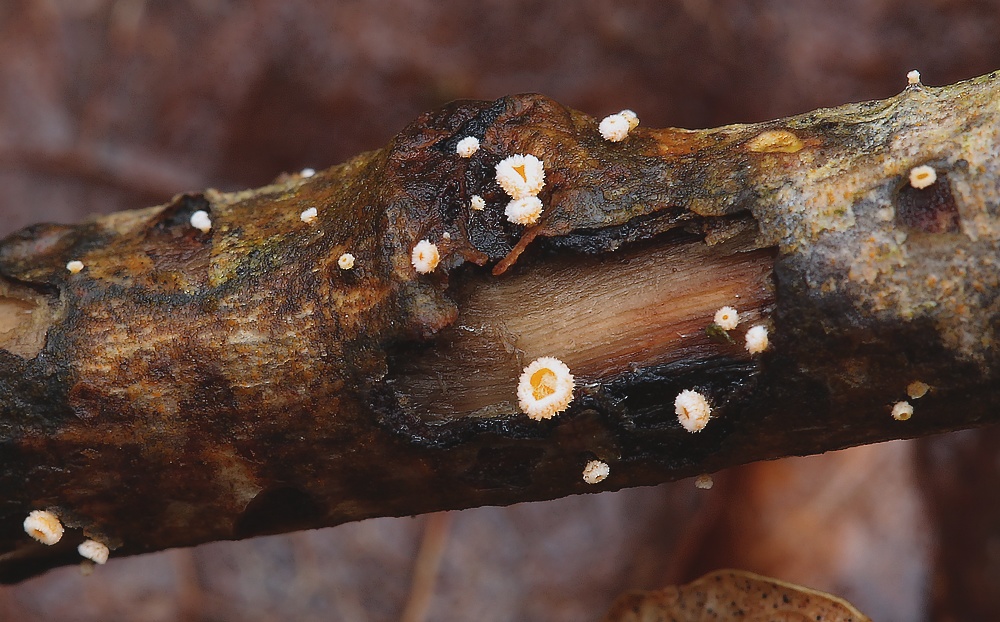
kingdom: Fungi
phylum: Ascomycota
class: Leotiomycetes
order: Helotiales
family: Lachnaceae
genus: Capitotricha
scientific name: Capitotricha bicolor
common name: prægtig frynseskive
